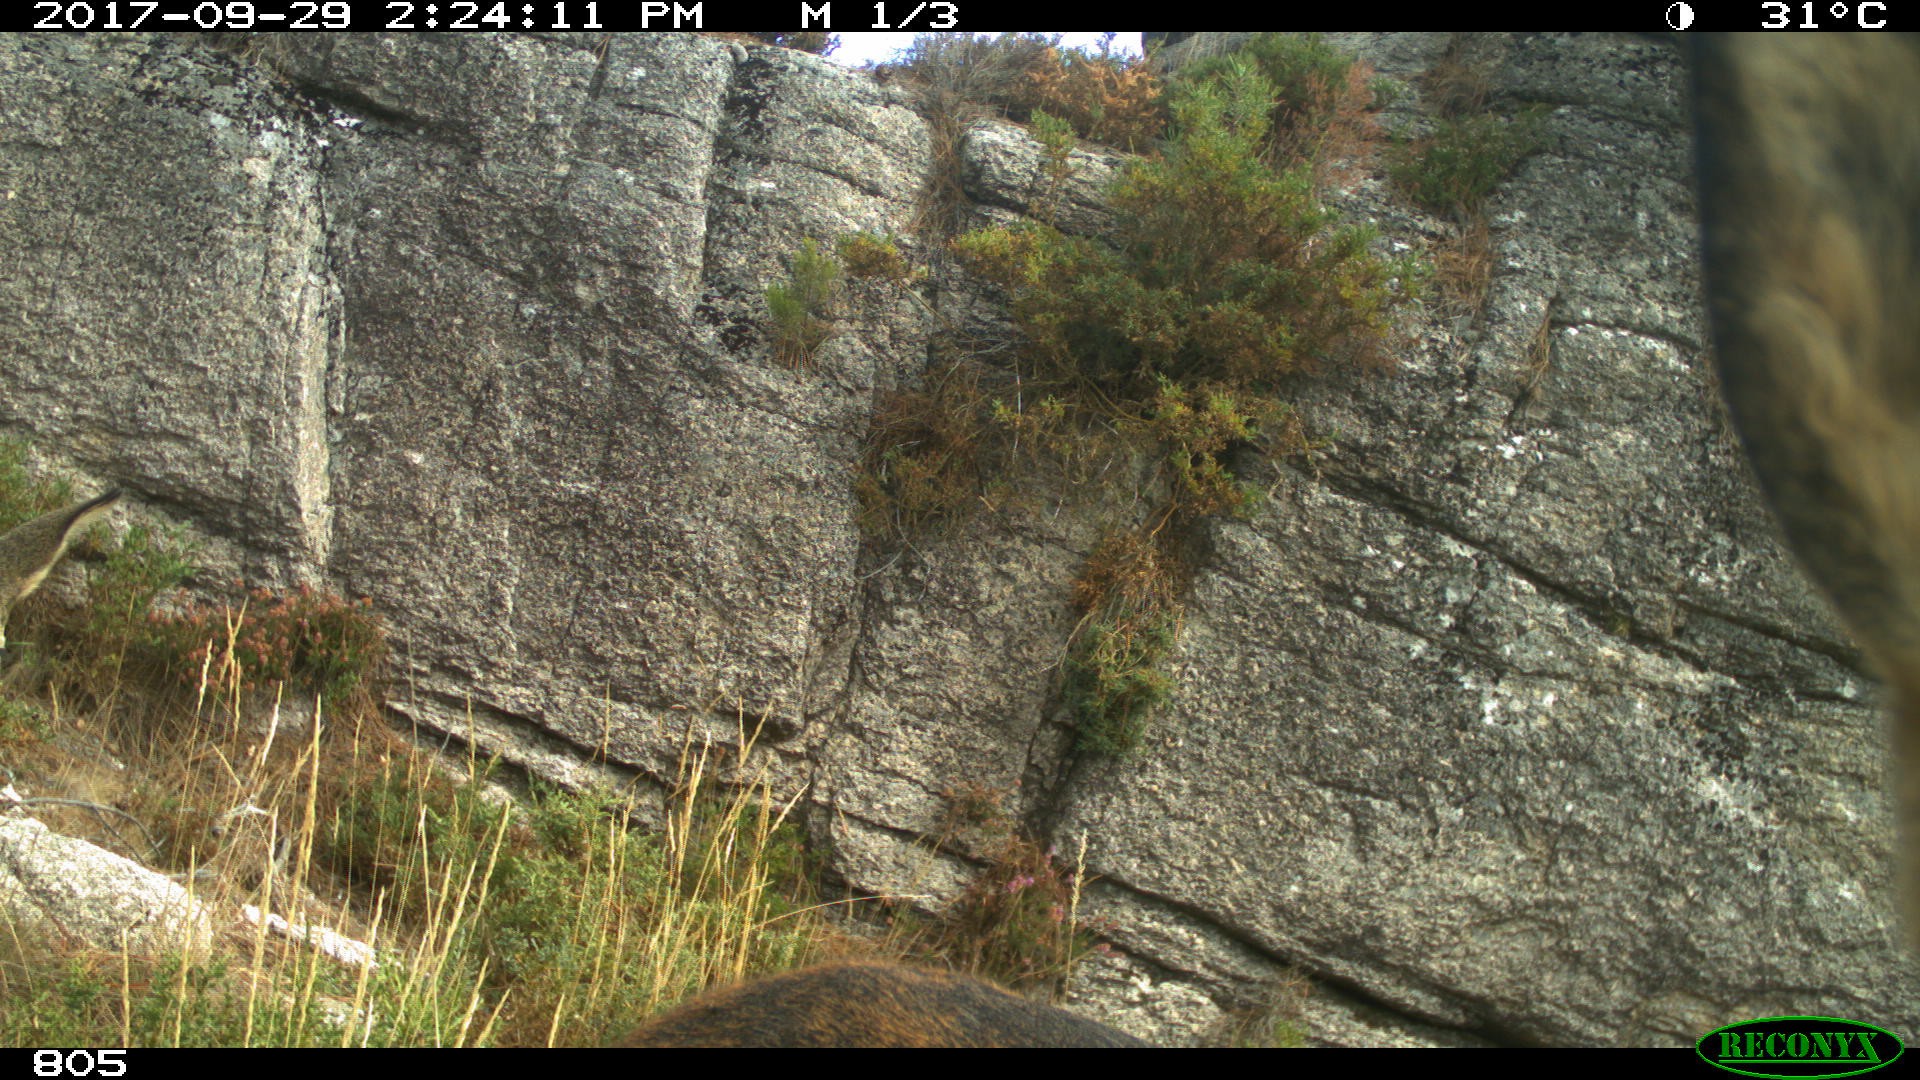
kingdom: Animalia
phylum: Chordata
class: Mammalia
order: Artiodactyla
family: Cervidae
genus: Capreolus
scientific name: Capreolus capreolus
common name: Western roe deer
